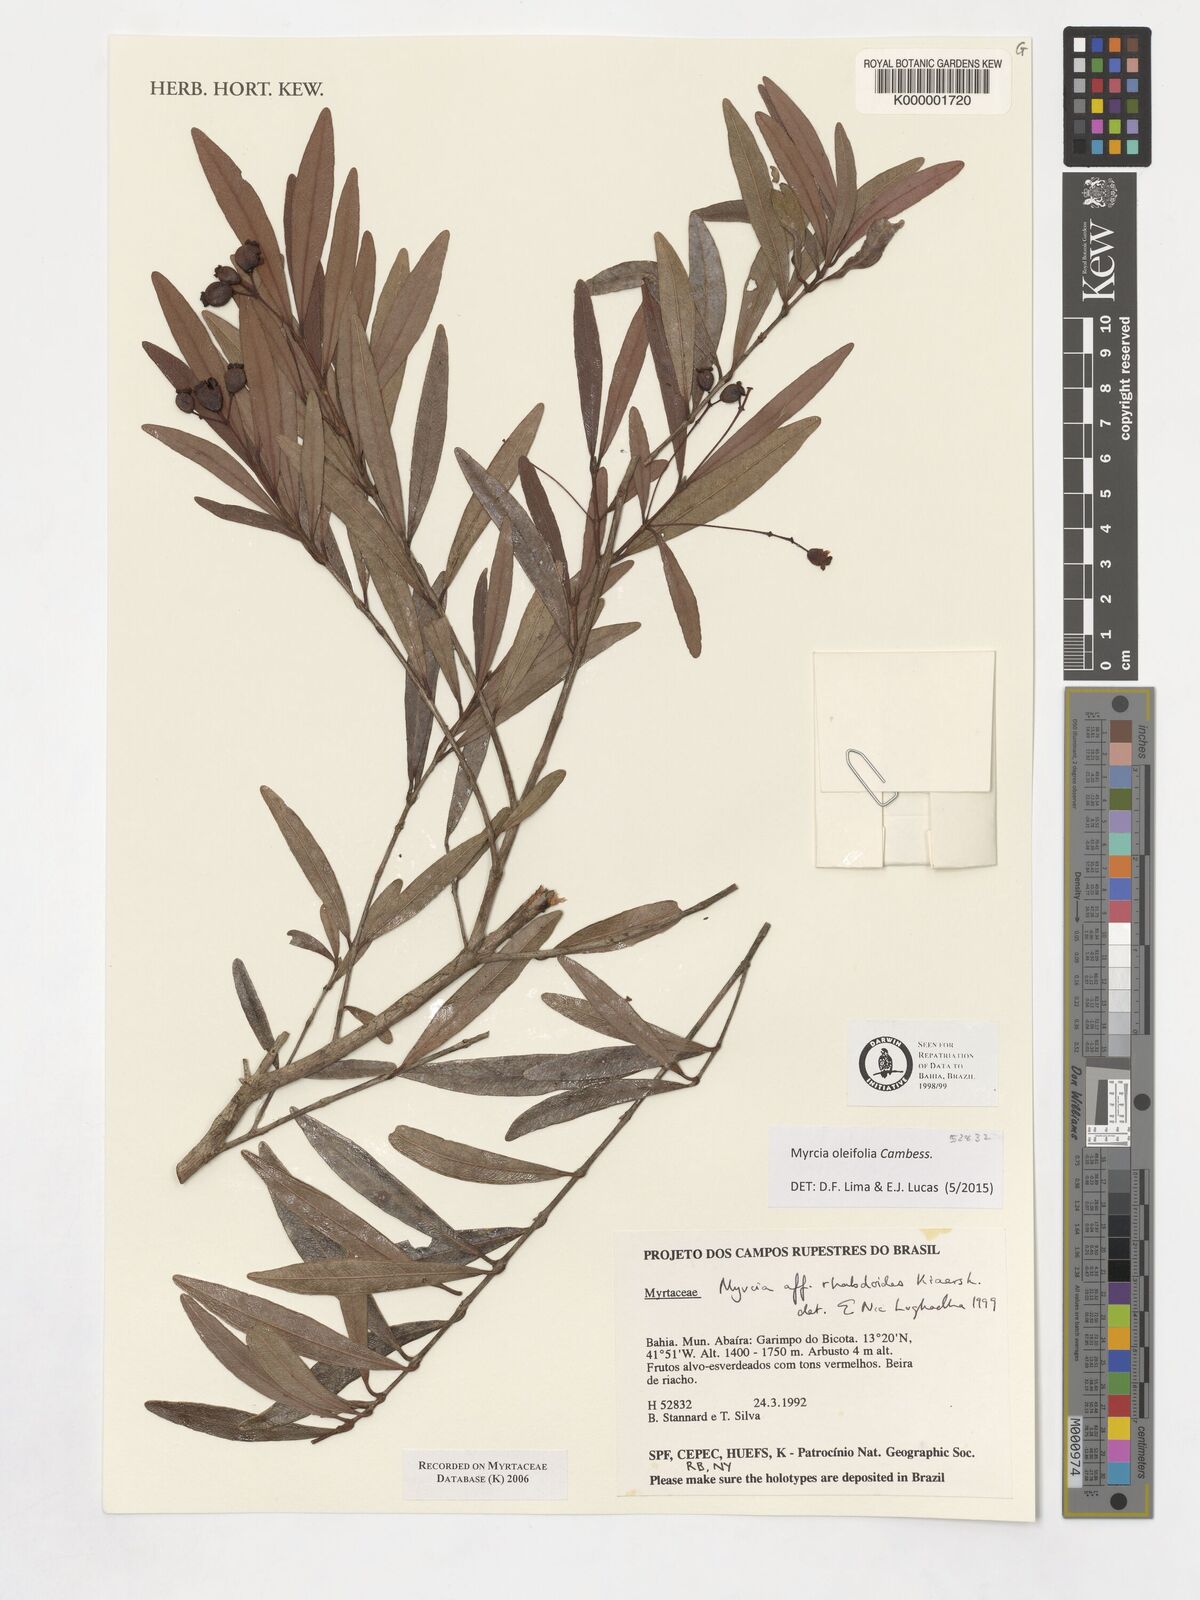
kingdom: Plantae
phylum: Tracheophyta
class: Magnoliopsida
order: Myrtales
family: Myrtaceae
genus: Myrcia
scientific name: Myrcia venulosa
